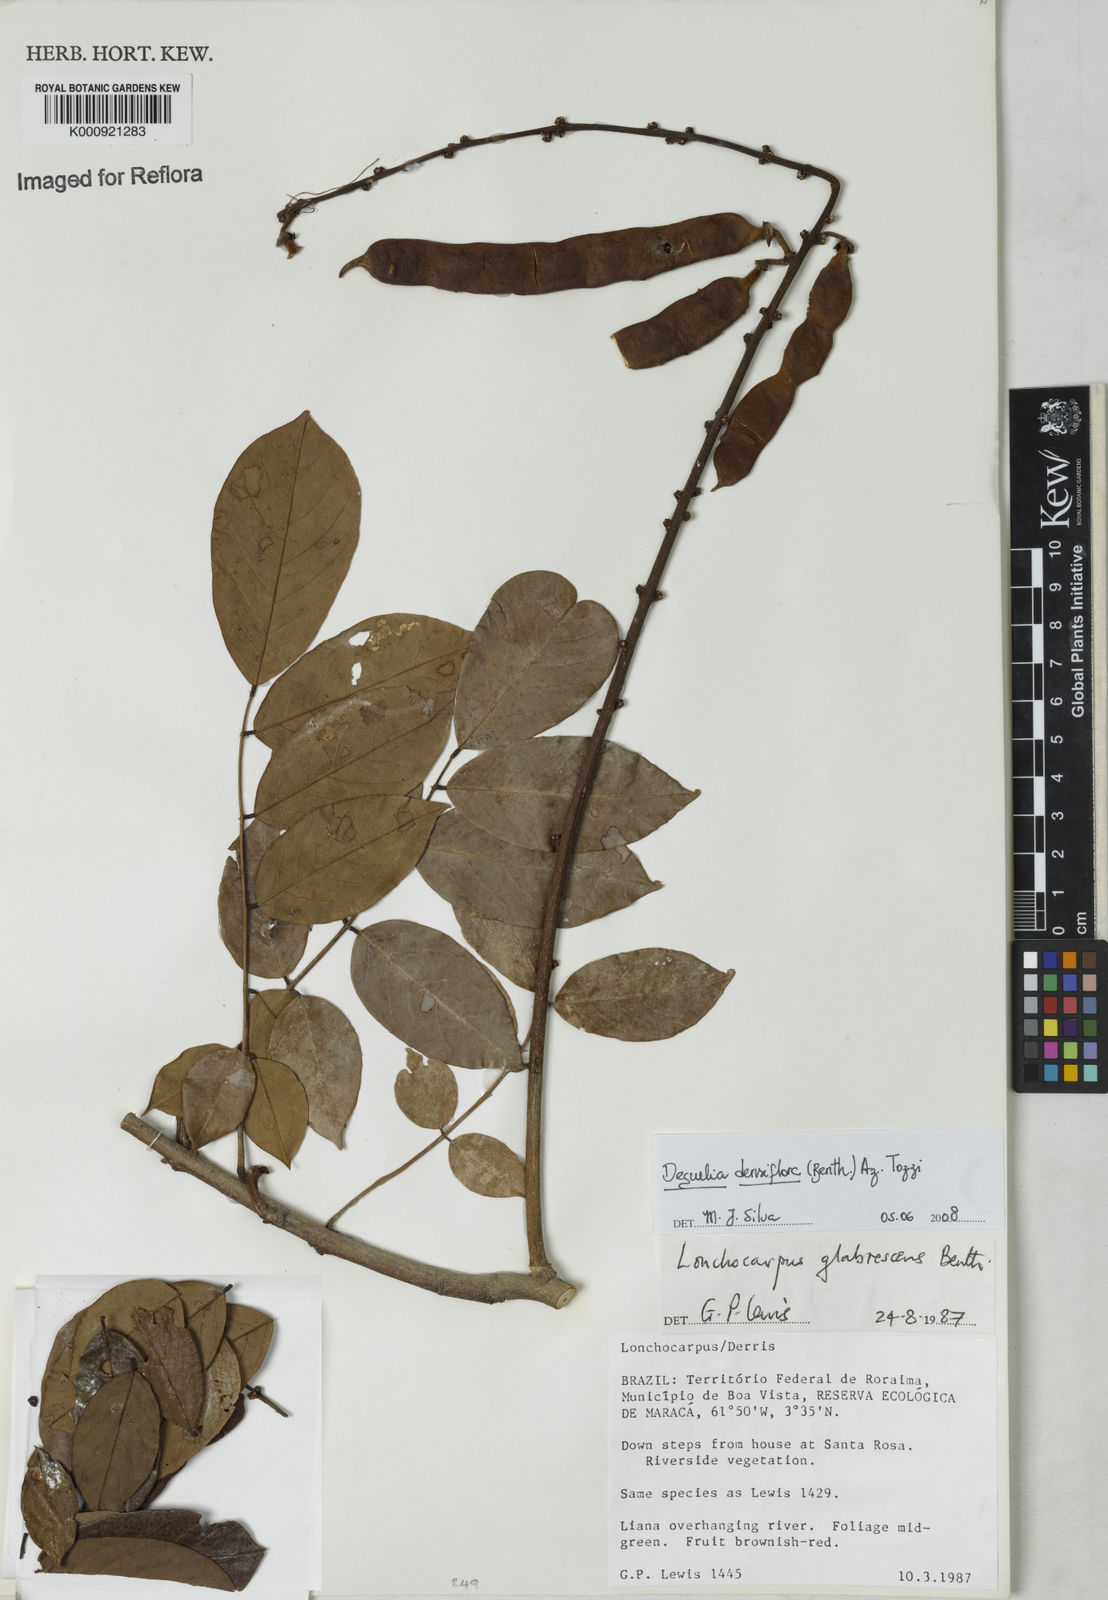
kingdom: Plantae
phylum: Tracheophyta
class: Magnoliopsida
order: Fabales
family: Fabaceae
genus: Deguelia
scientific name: Deguelia
